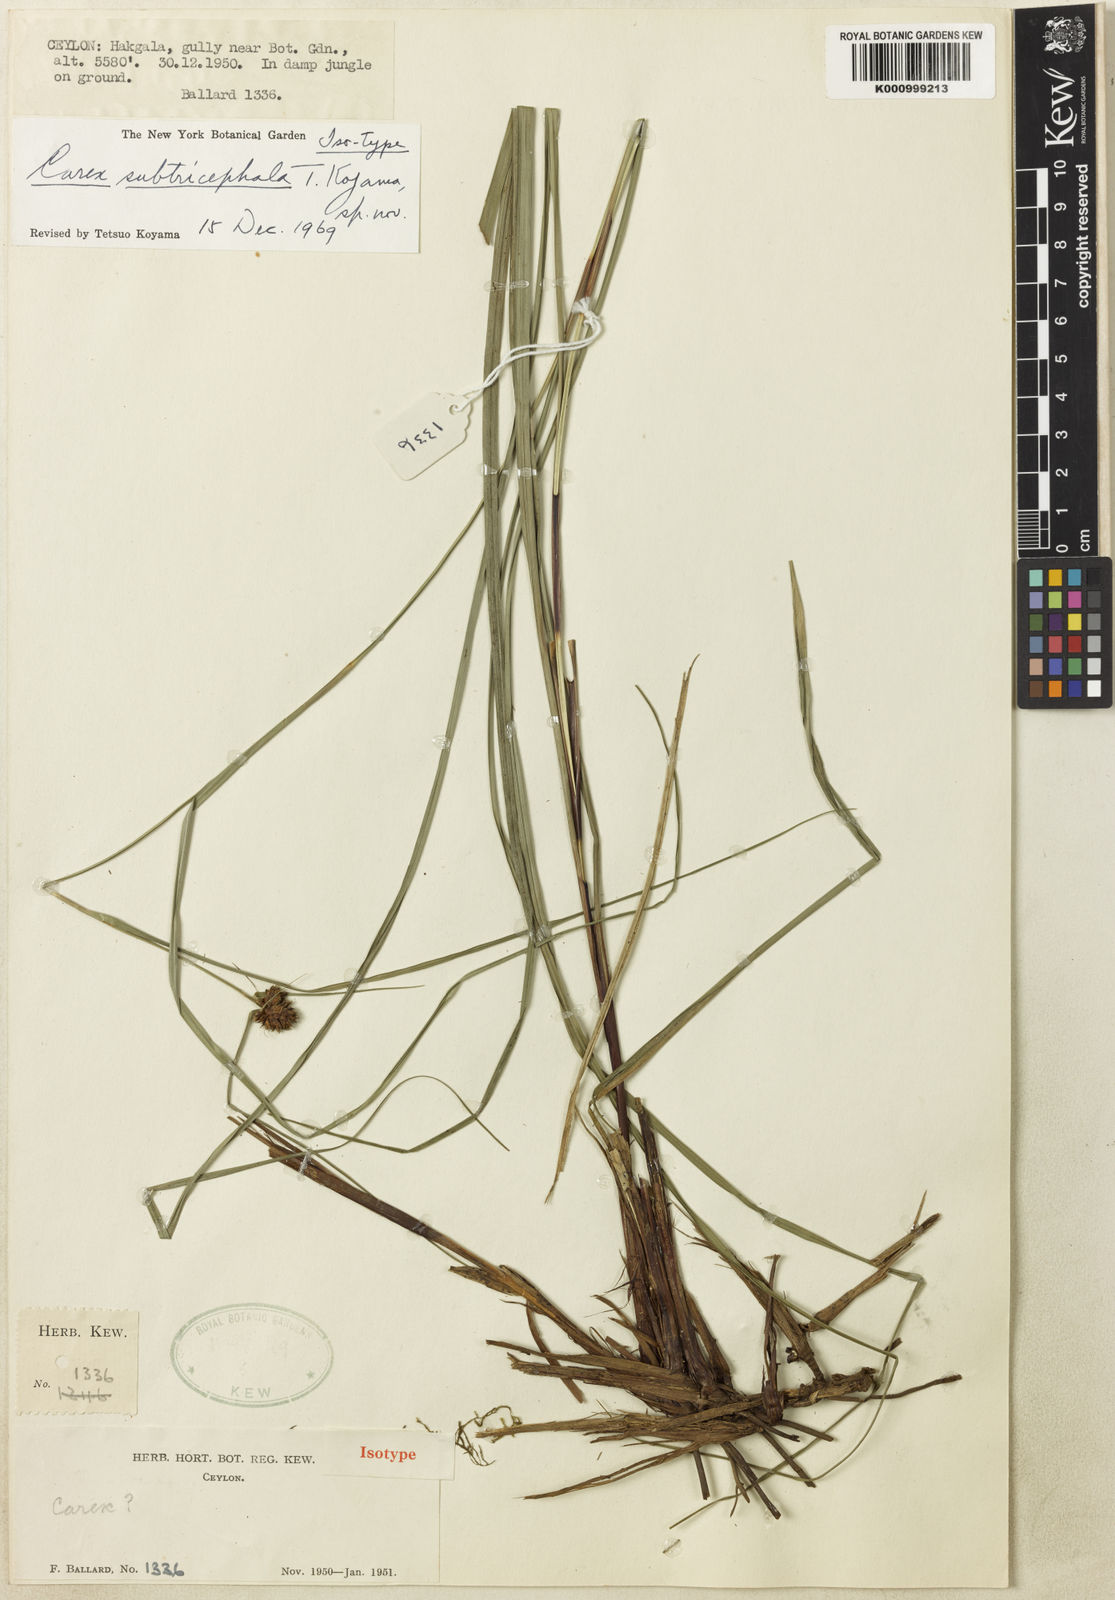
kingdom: Plantae
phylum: Tracheophyta
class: Liliopsida
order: Poales
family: Cyperaceae
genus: Carex
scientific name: Carex
